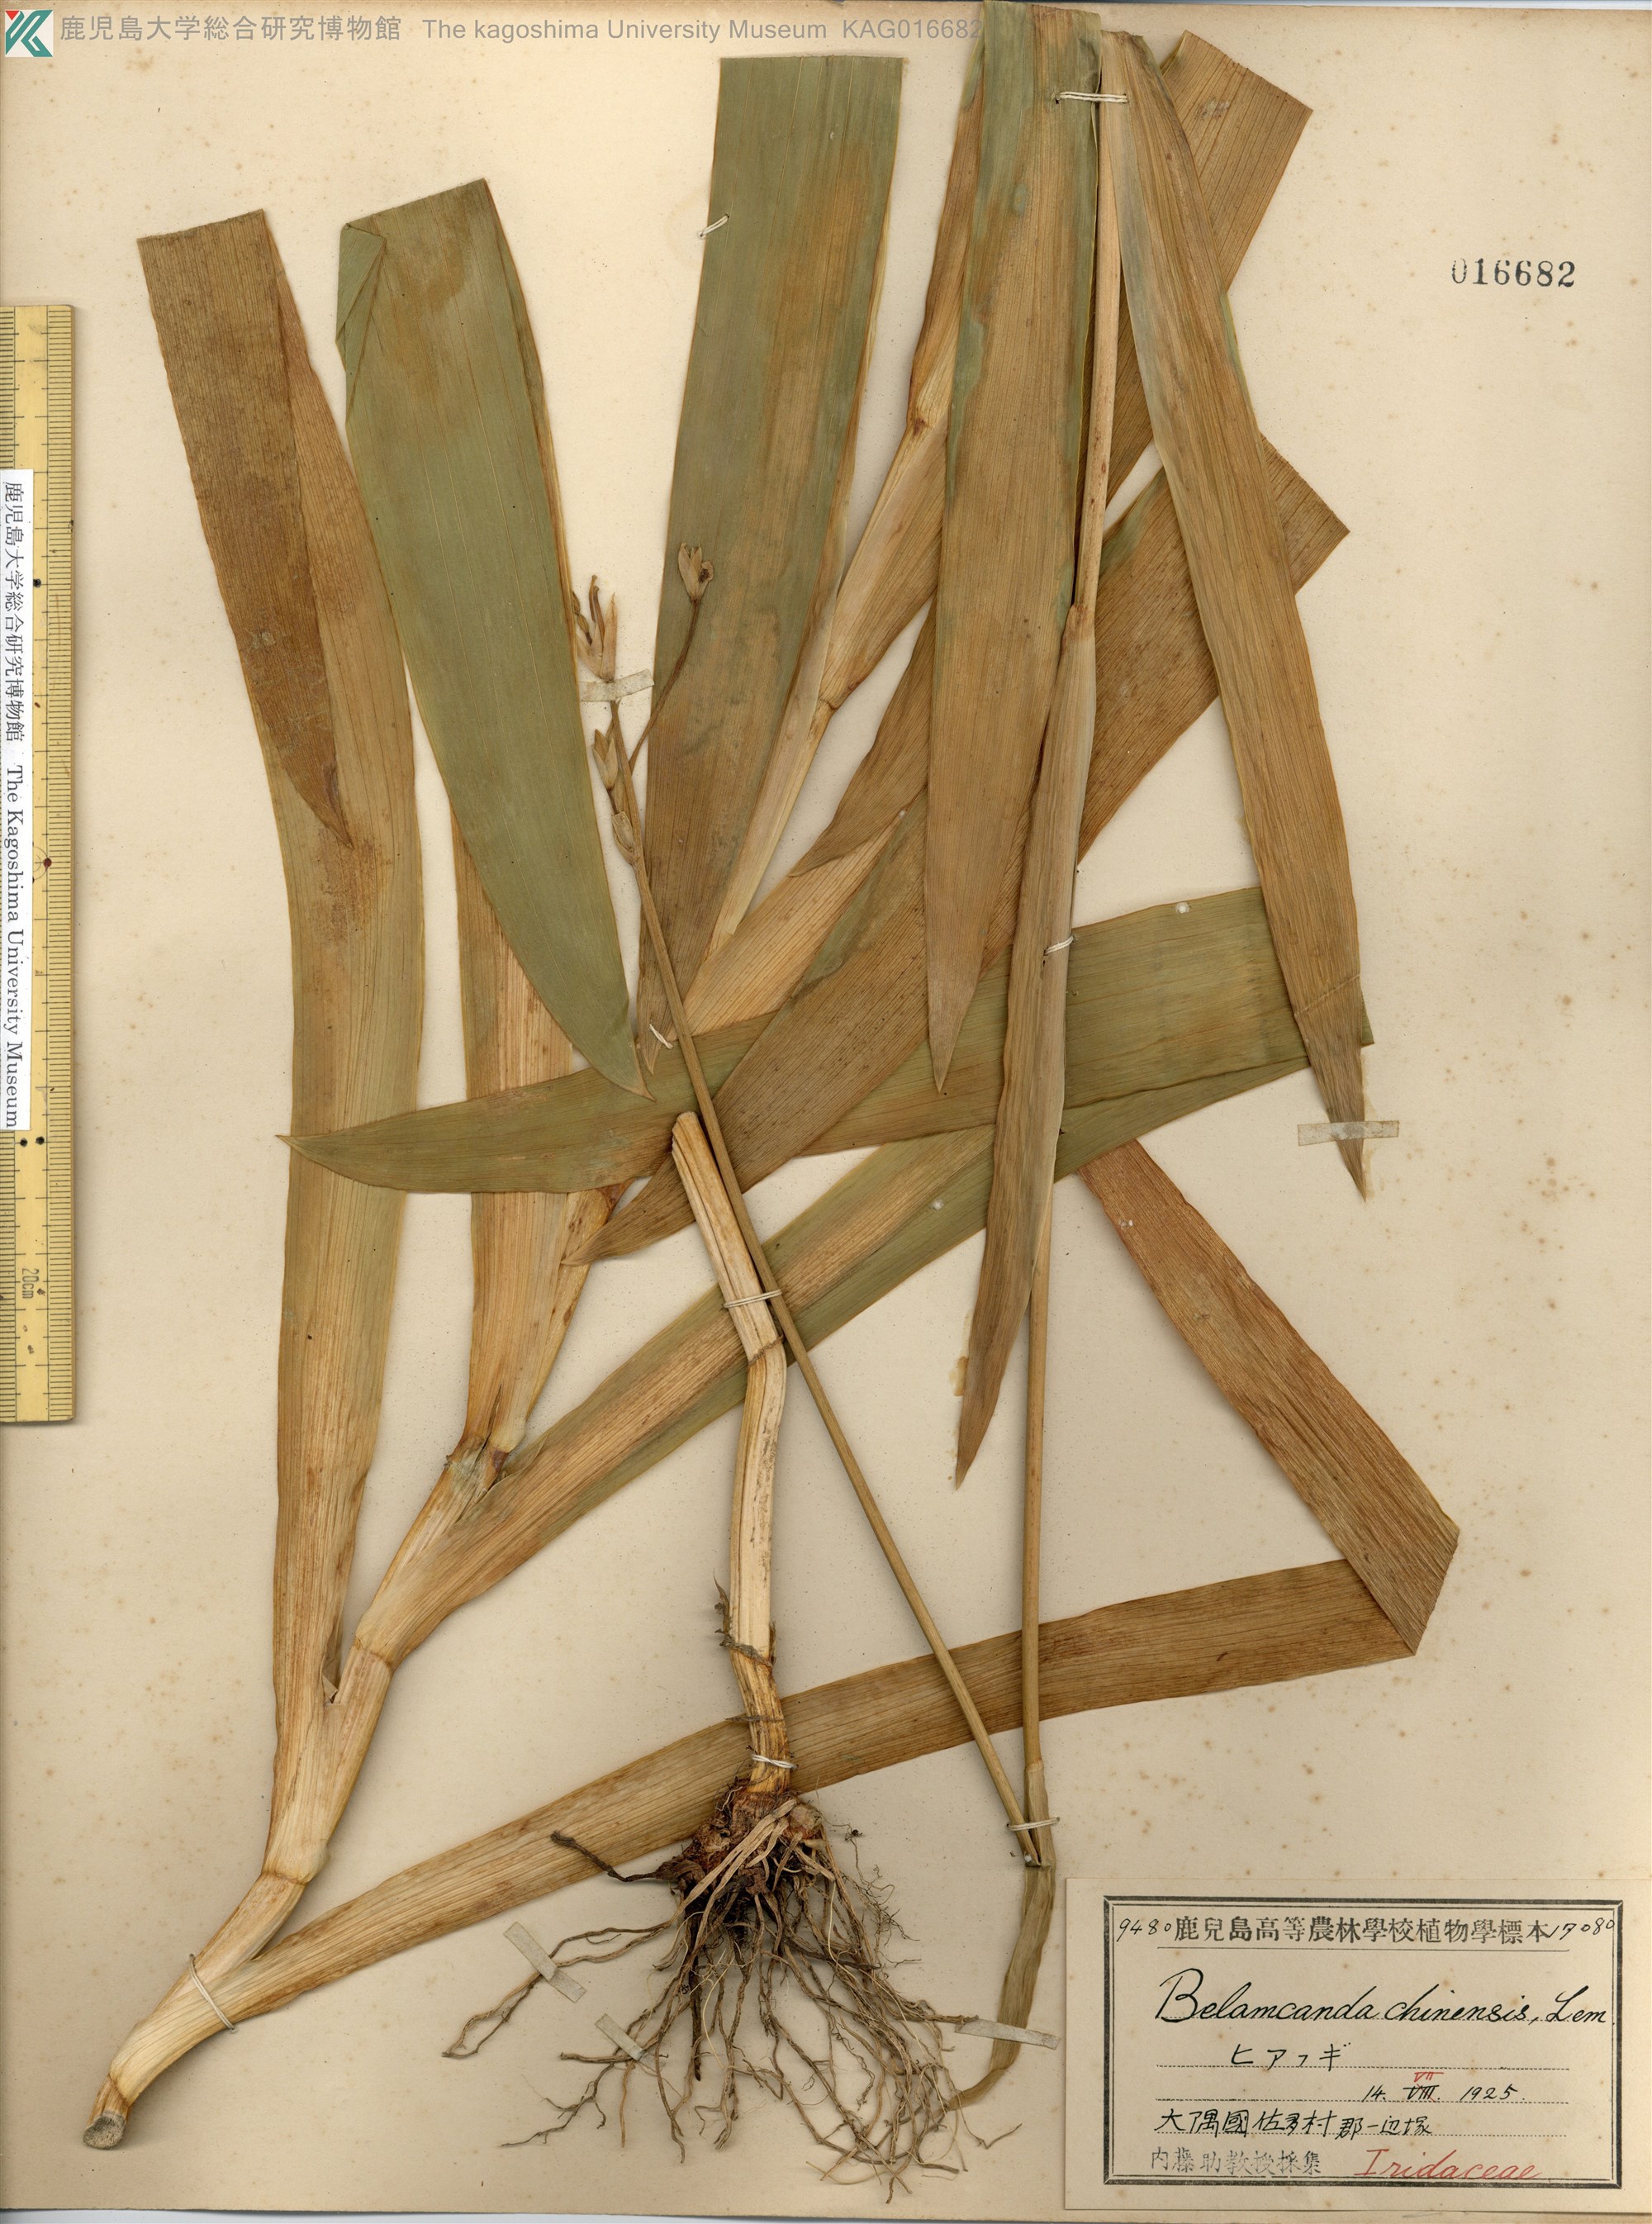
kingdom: Plantae
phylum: Tracheophyta
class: Liliopsida
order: Asparagales
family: Iridaceae
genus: Iris
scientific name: Iris domestica
